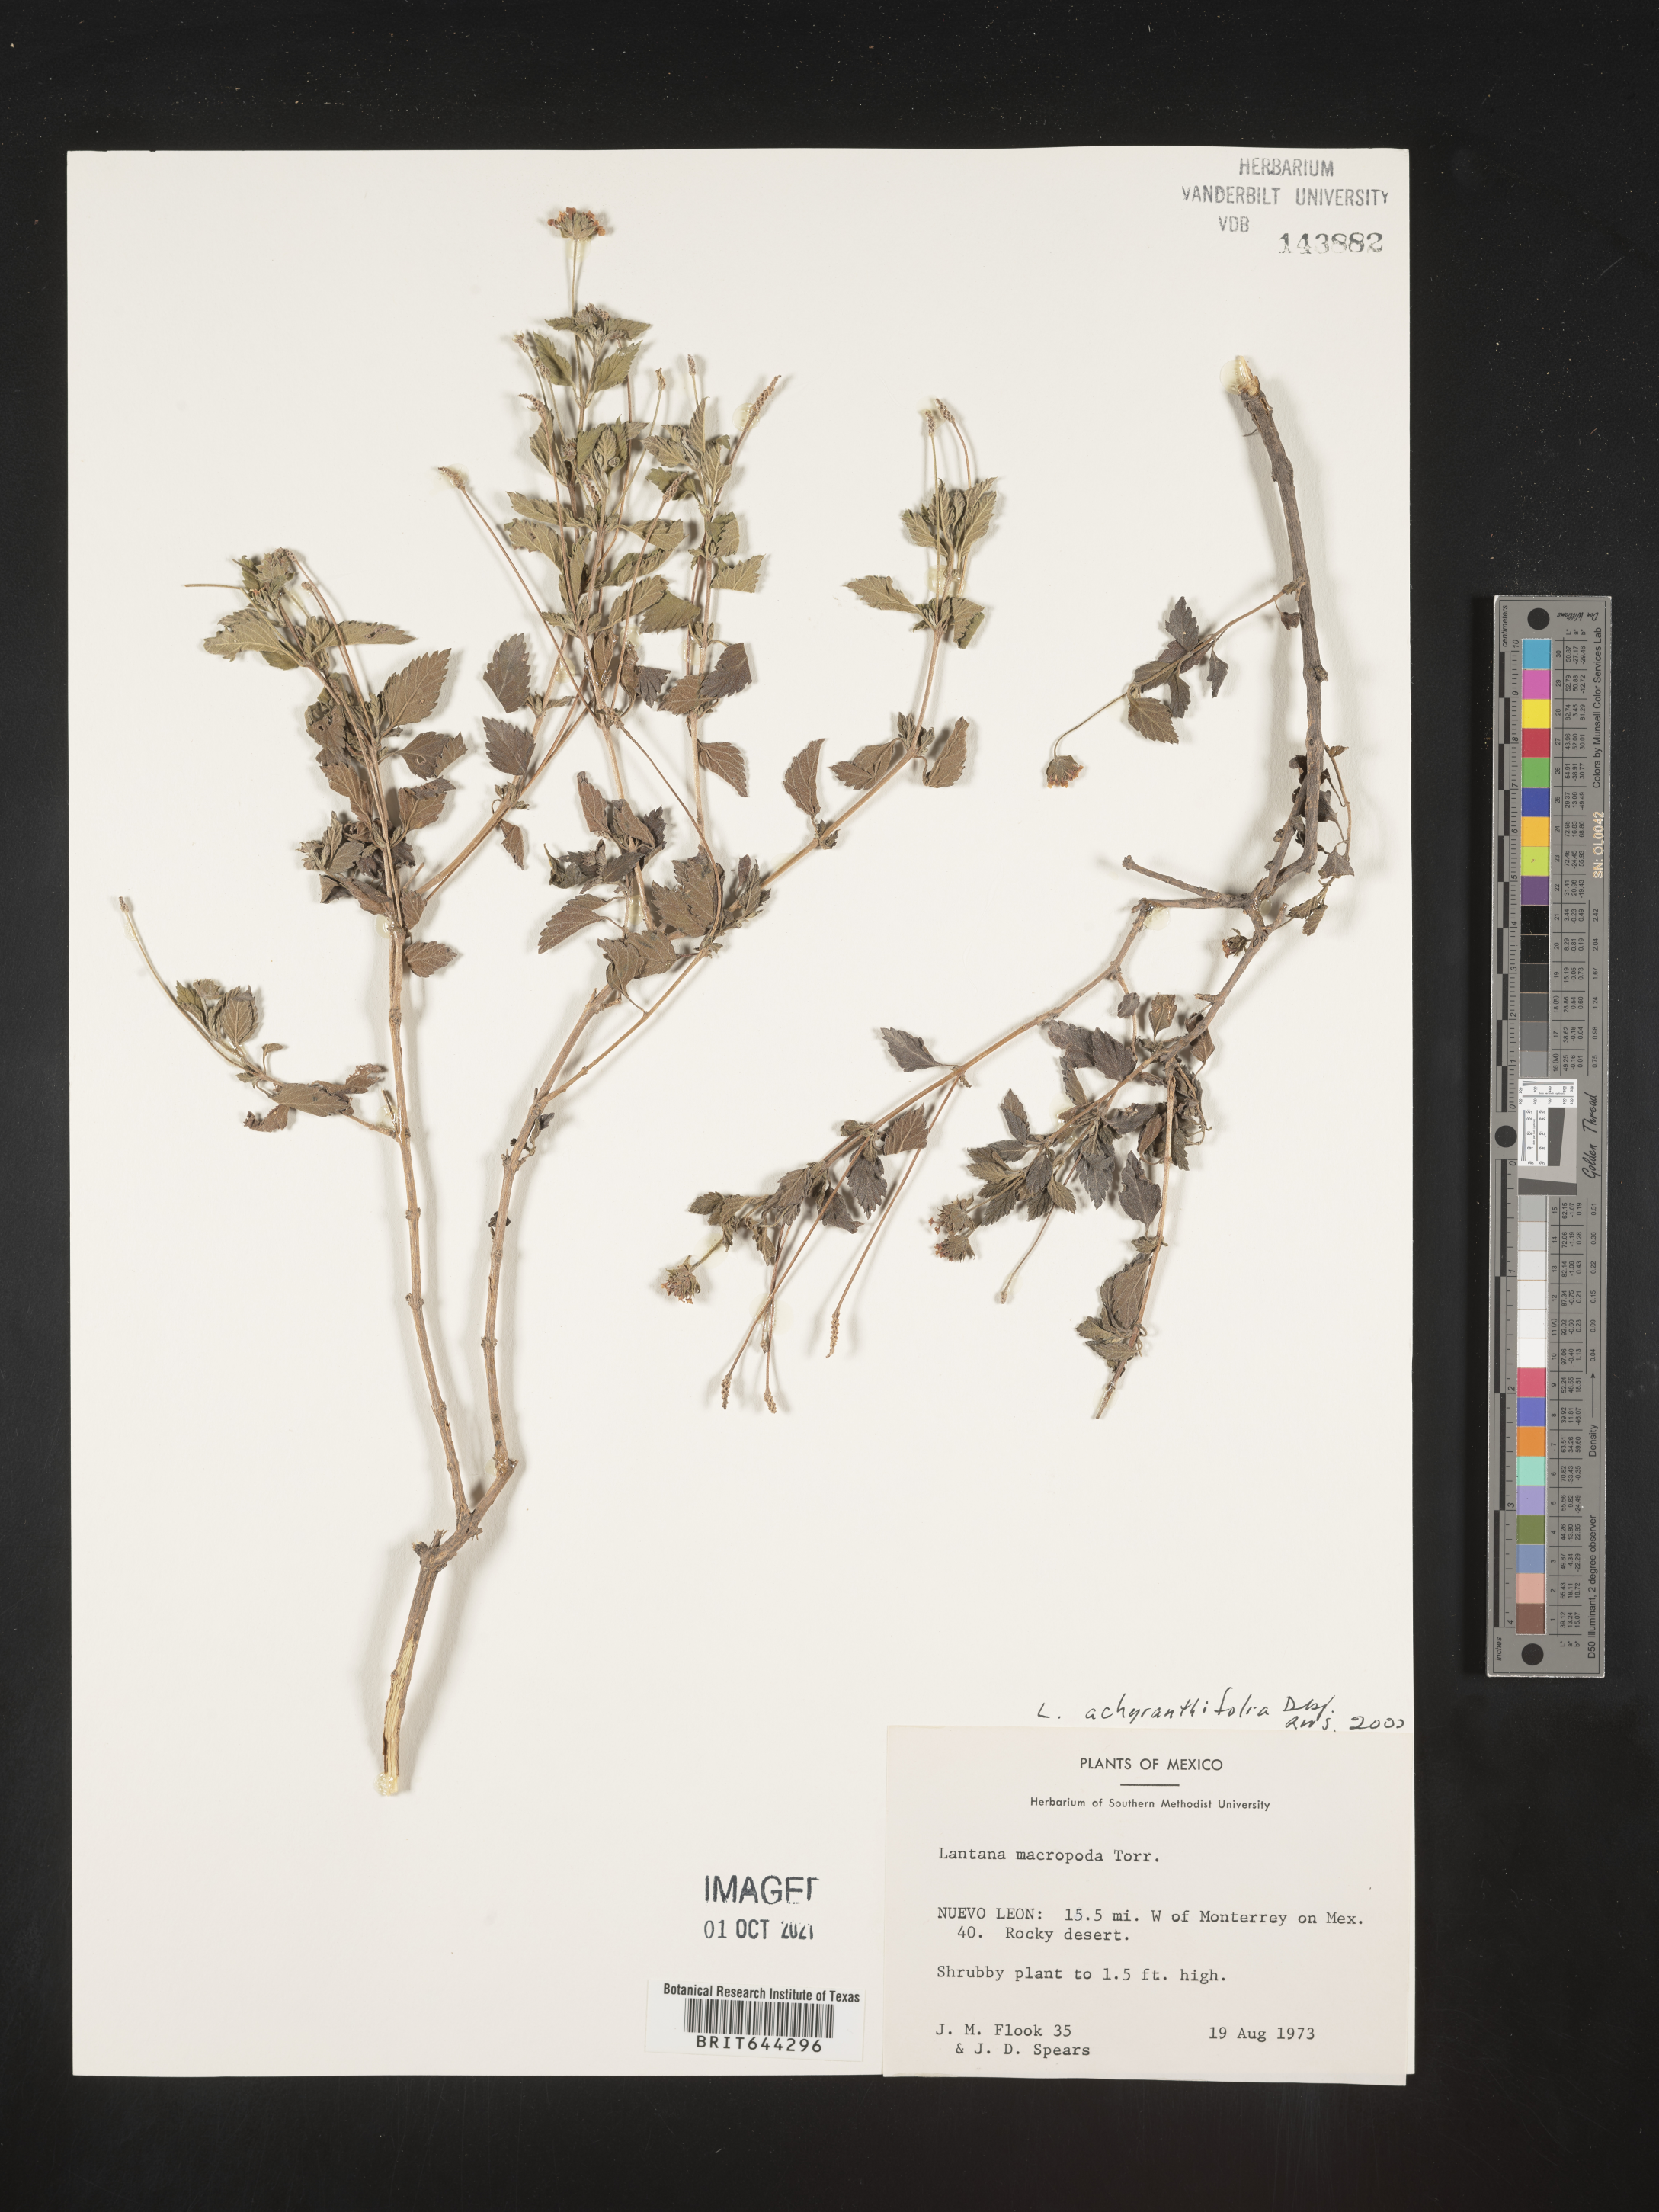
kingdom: Plantae
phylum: Tracheophyta
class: Magnoliopsida
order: Lamiales
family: Verbenaceae
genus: Lantana
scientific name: Lantana
